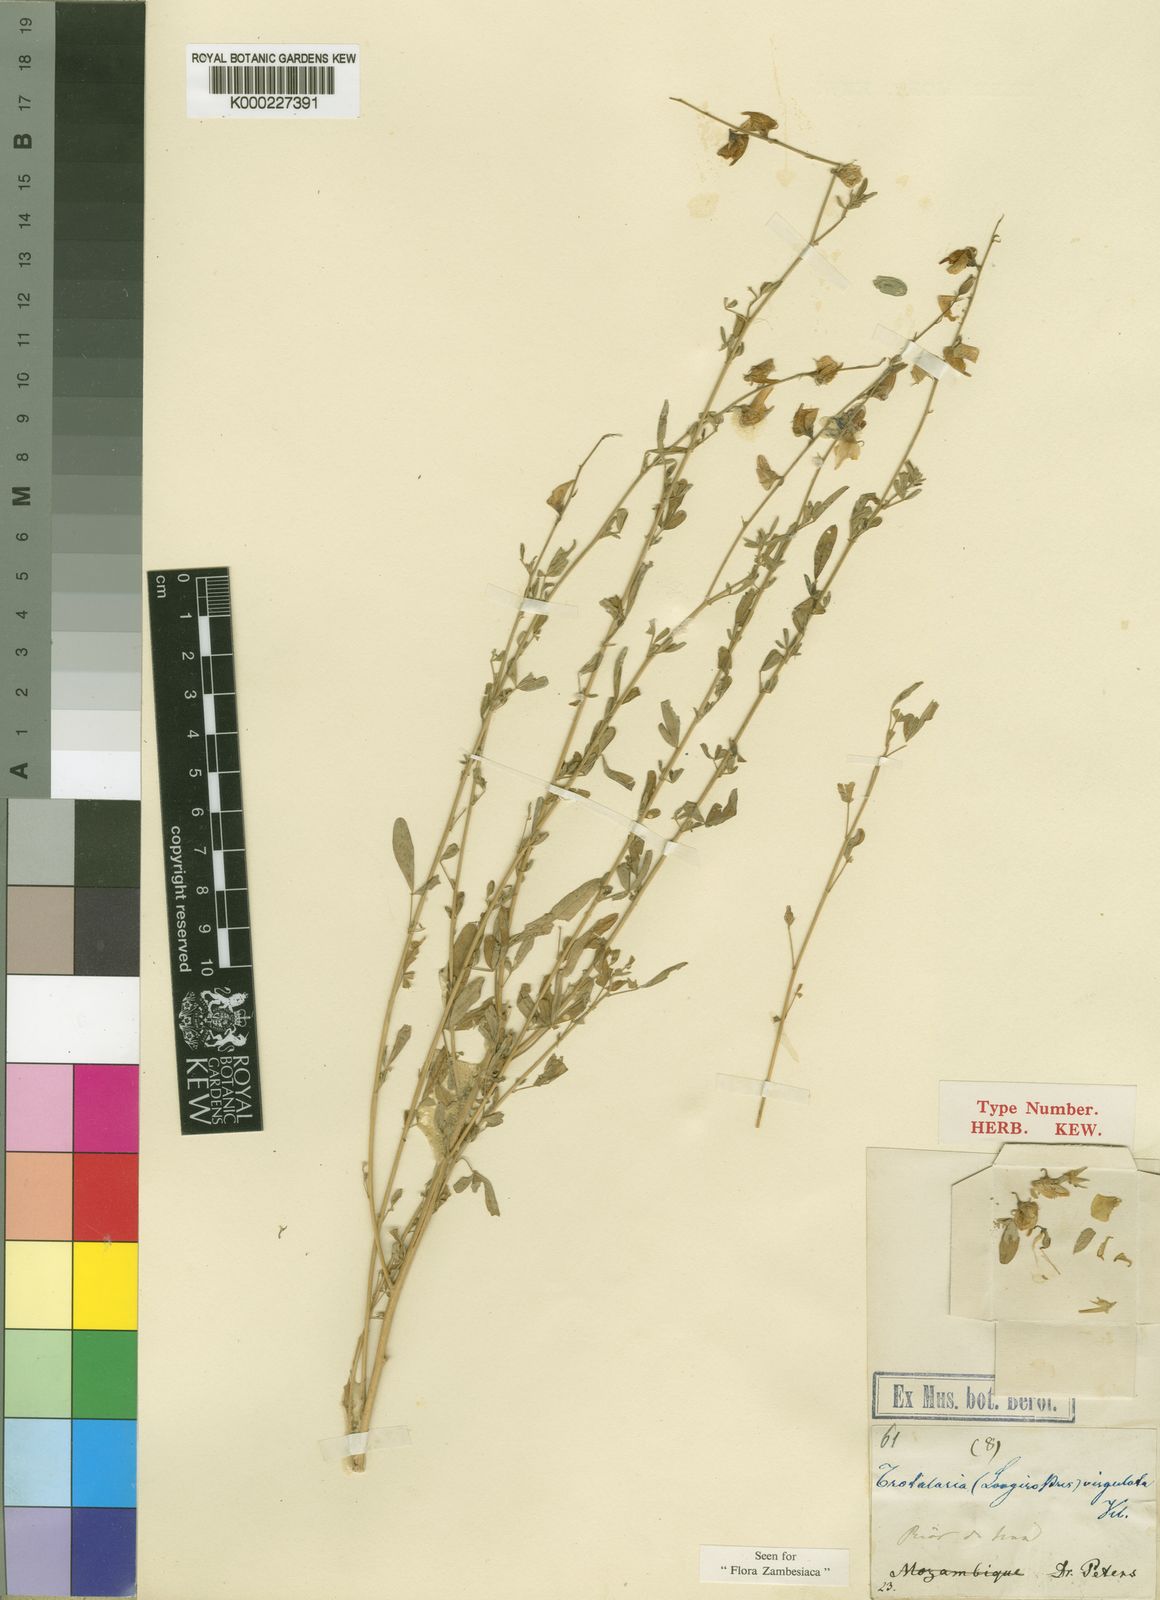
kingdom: Plantae
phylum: Tracheophyta
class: Magnoliopsida
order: Fabales
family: Fabaceae
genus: Crotalaria
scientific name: Crotalaria virgulata
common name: Thicket rattlebox
